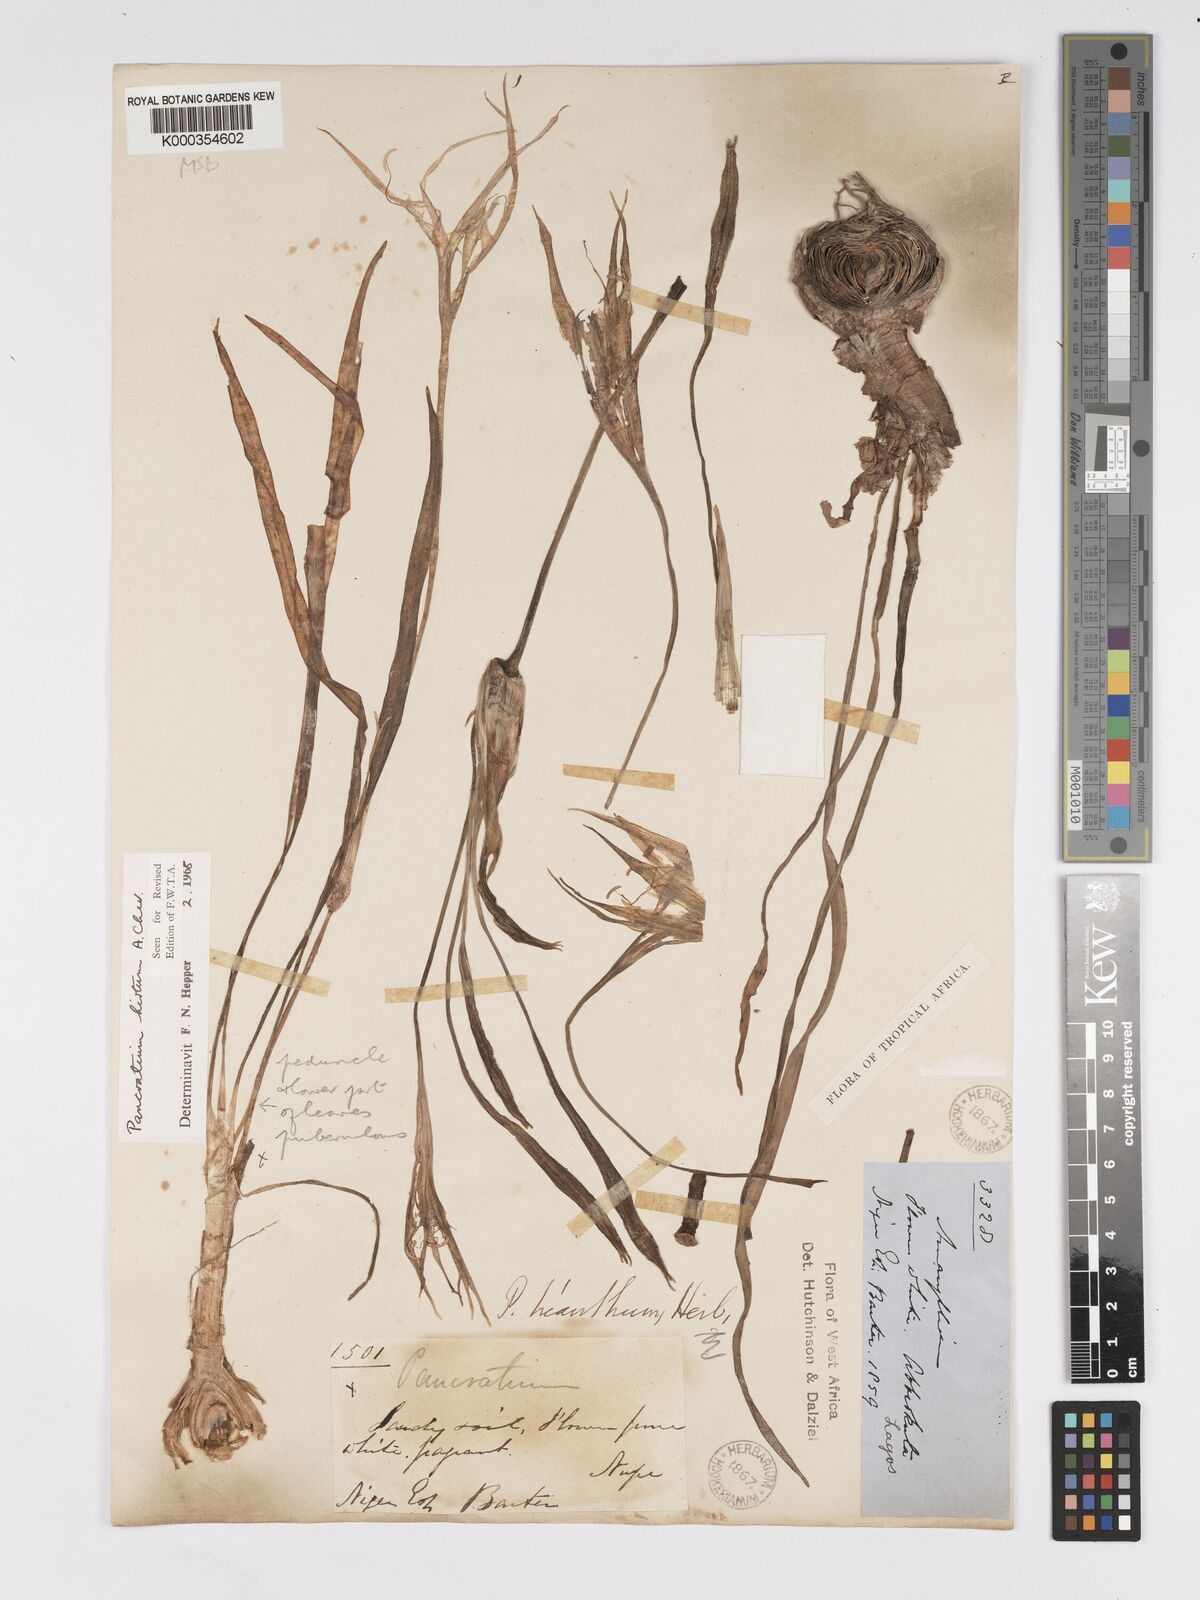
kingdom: Plantae
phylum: Tracheophyta
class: Liliopsida
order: Asparagales
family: Amaryllidaceae
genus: Pancratium
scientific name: Pancratium tenuifolium
